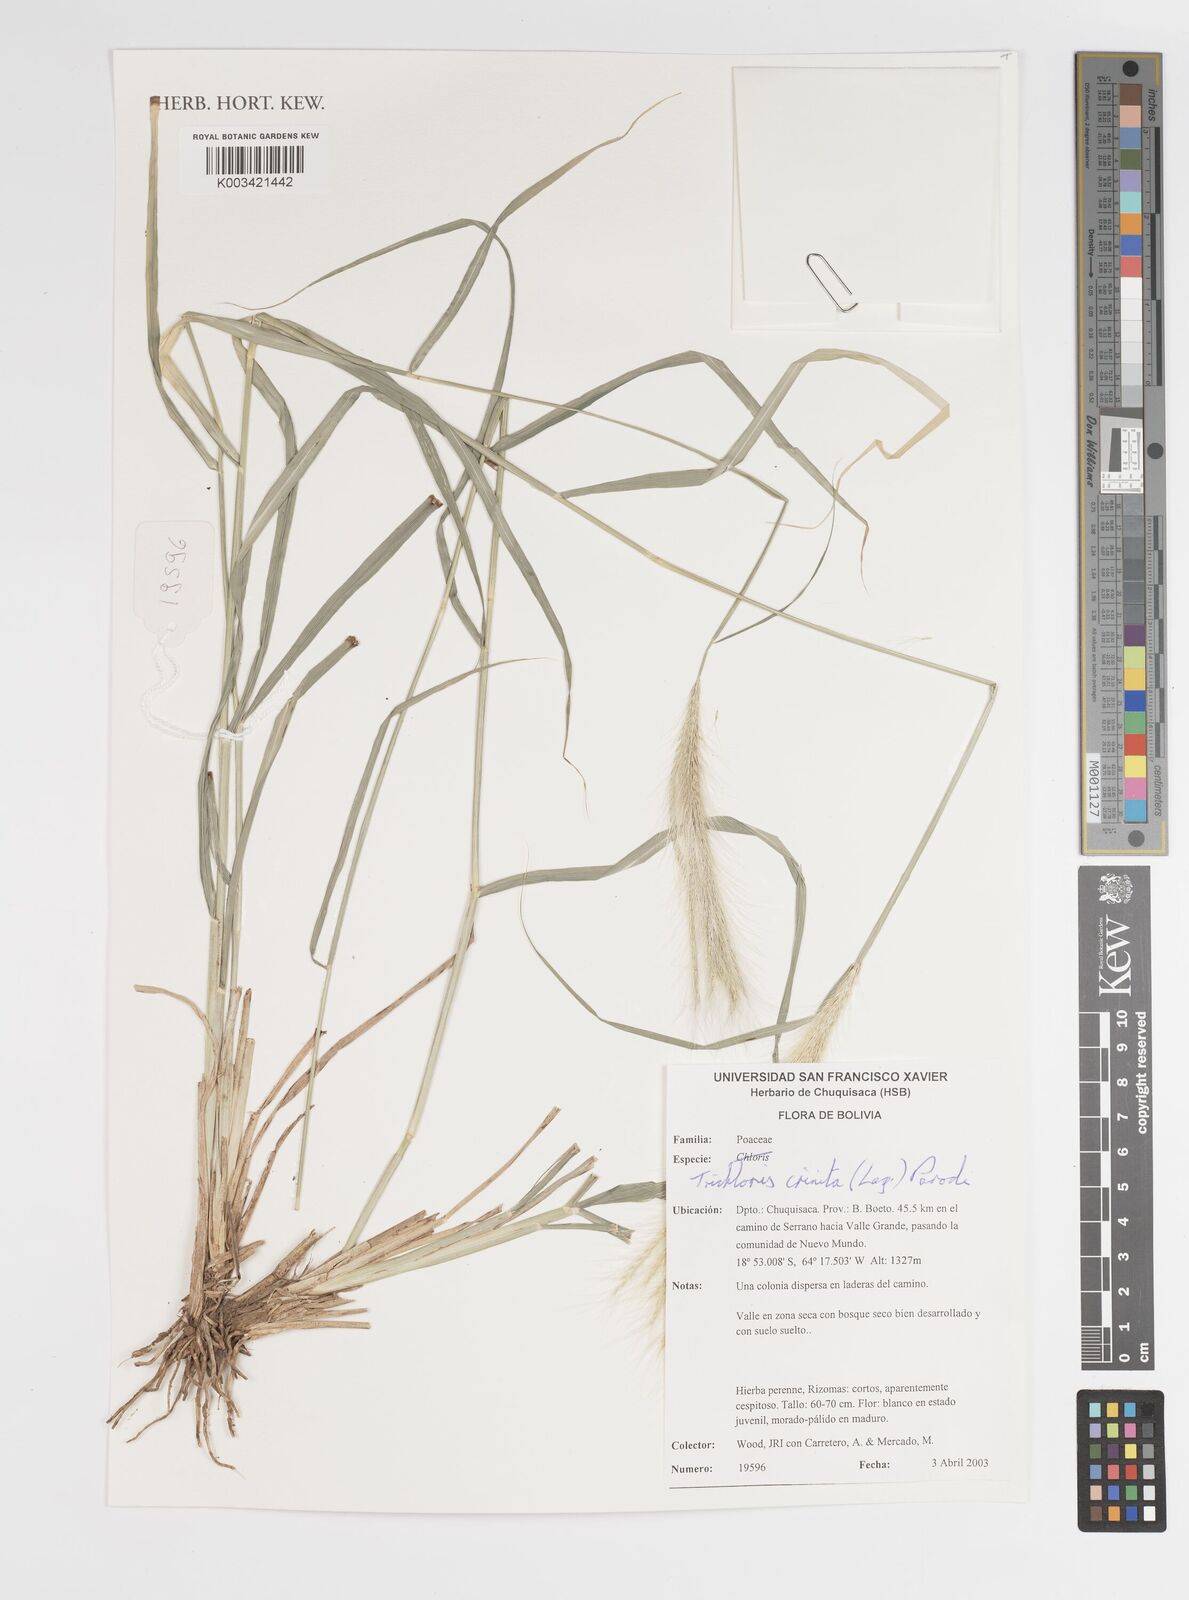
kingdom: Plantae
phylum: Tracheophyta
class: Liliopsida
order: Poales
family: Poaceae
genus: Leptochloa
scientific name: Leptochloa crinita
